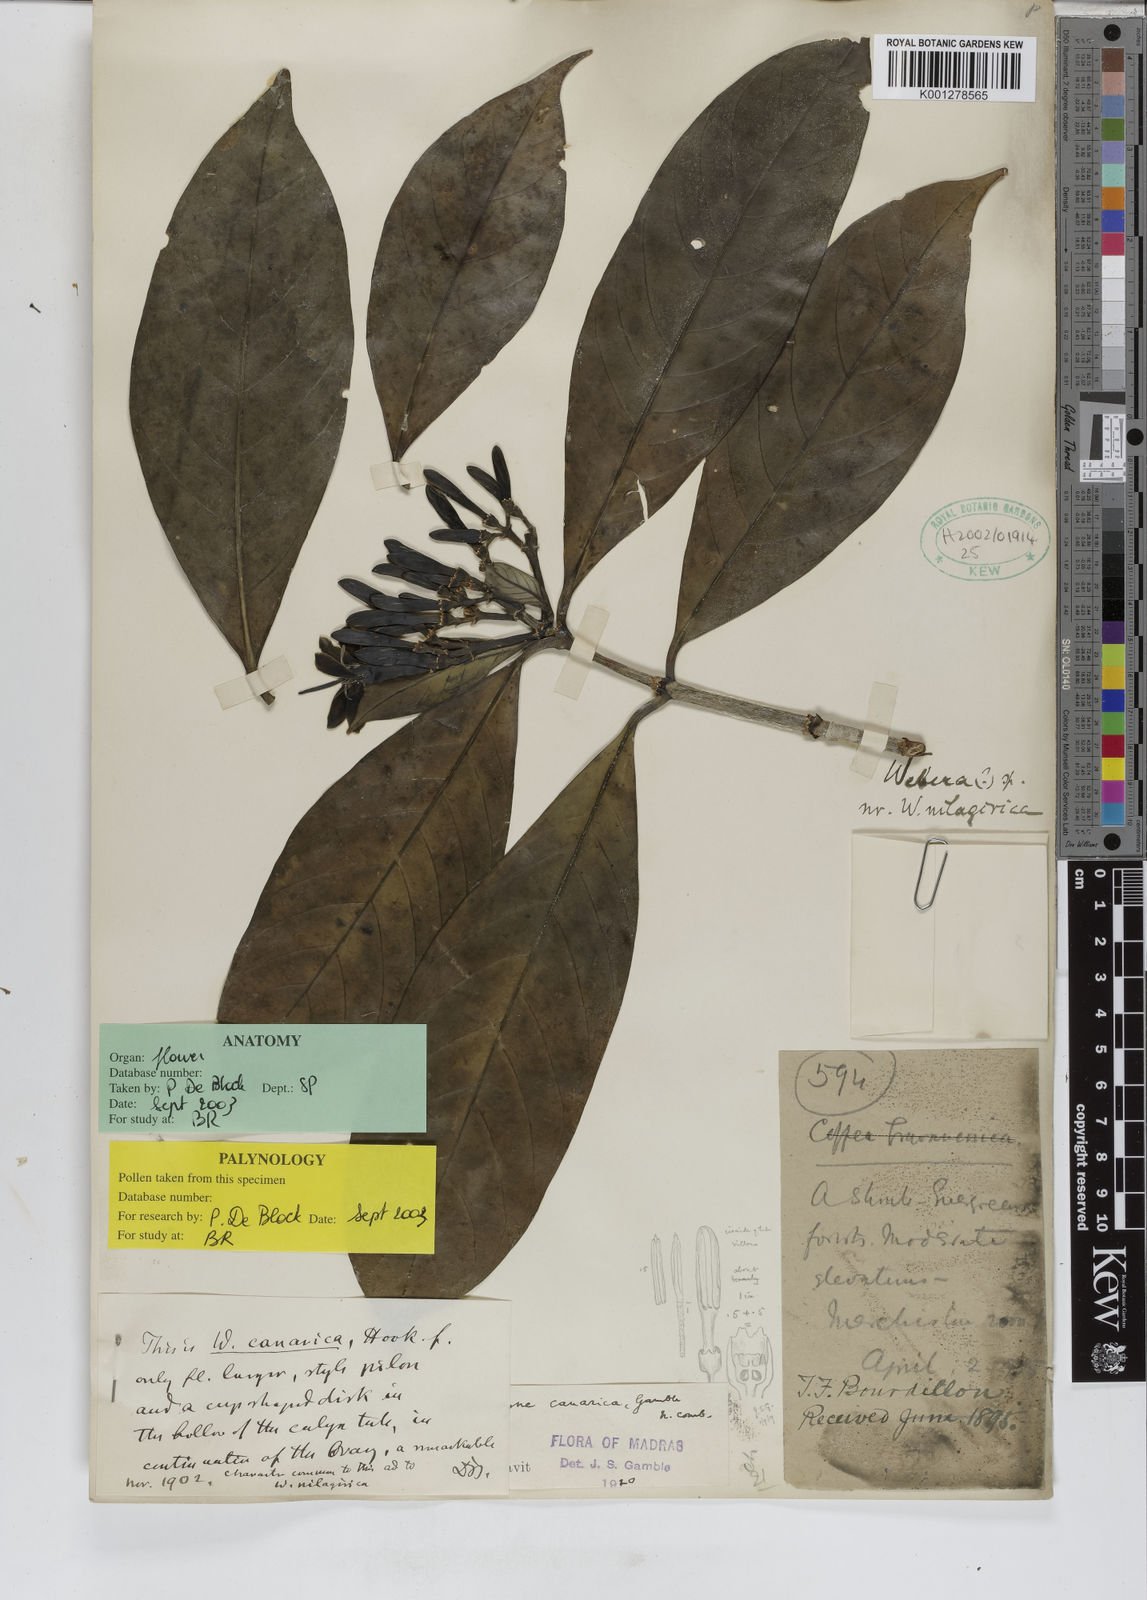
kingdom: Plantae
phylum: Tracheophyta
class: Magnoliopsida
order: Gentianales
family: Rubiaceae
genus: Tarenna
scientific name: Tarenna canarica
